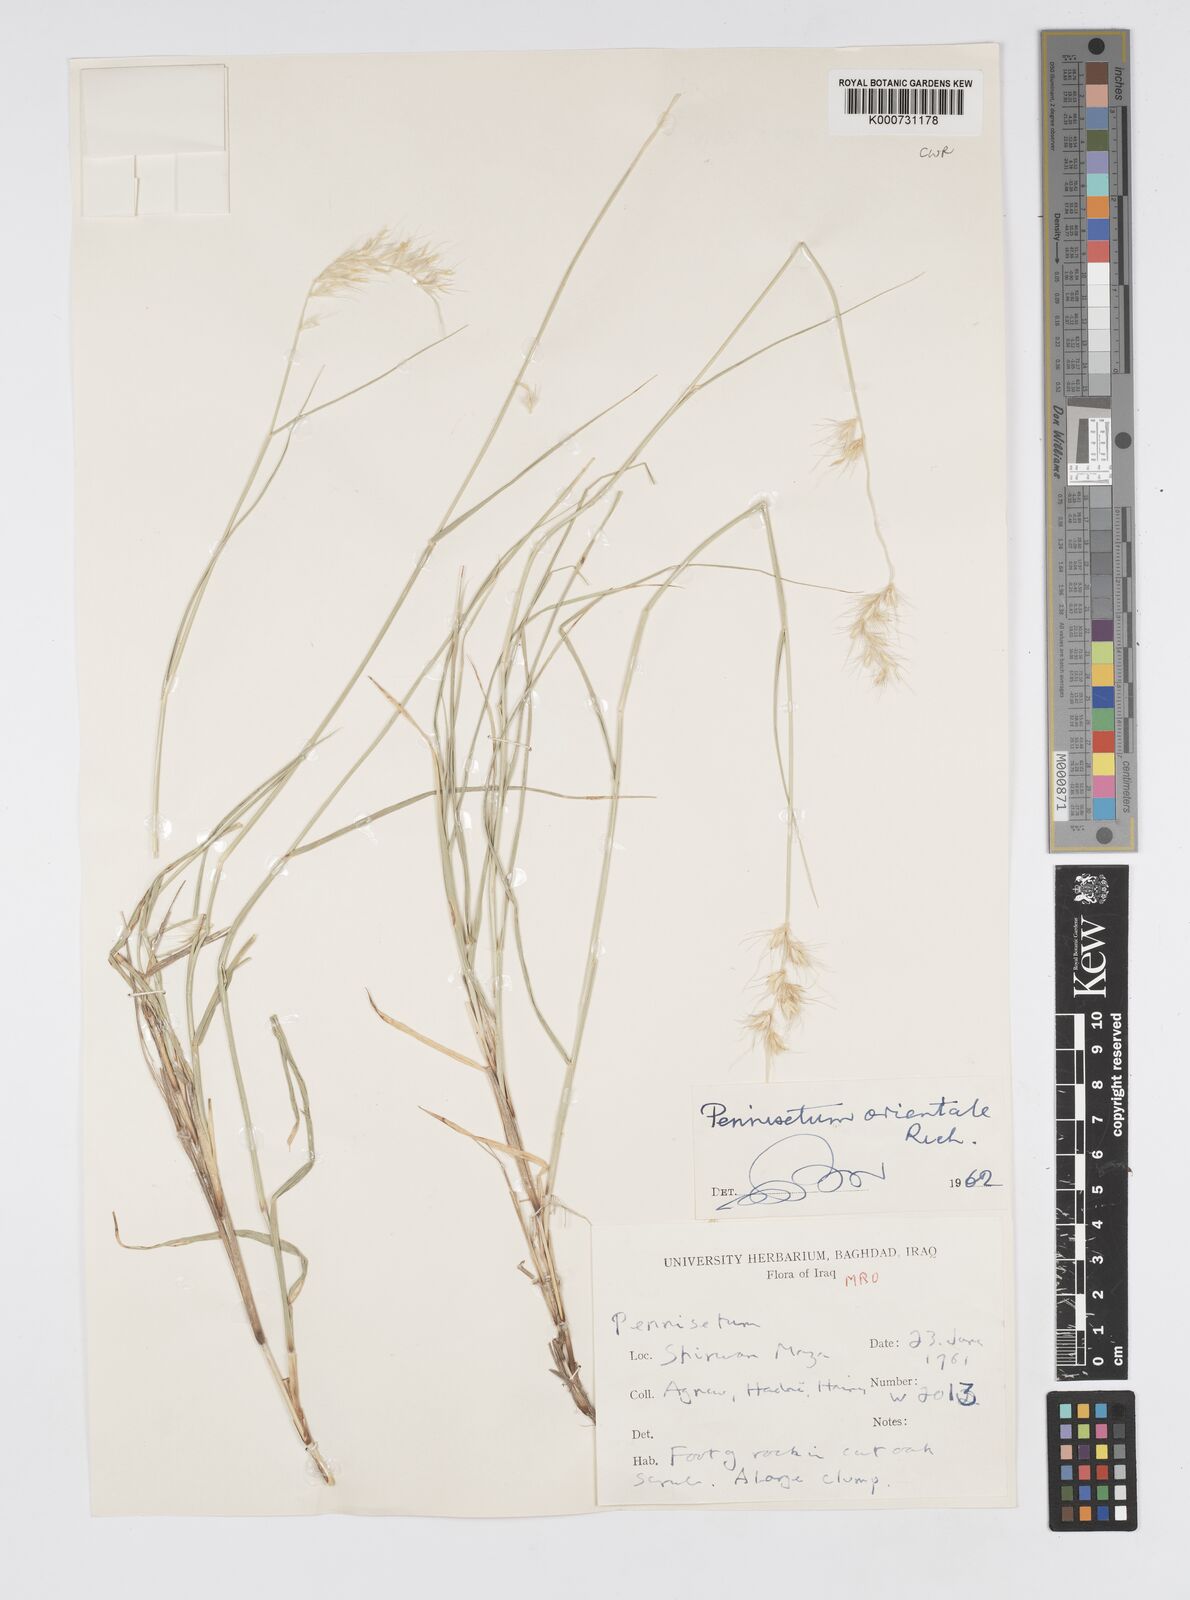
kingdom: Plantae
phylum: Tracheophyta
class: Liliopsida
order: Poales
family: Poaceae
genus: Cenchrus
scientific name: Cenchrus orientalis
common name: Oriental fountain grass
